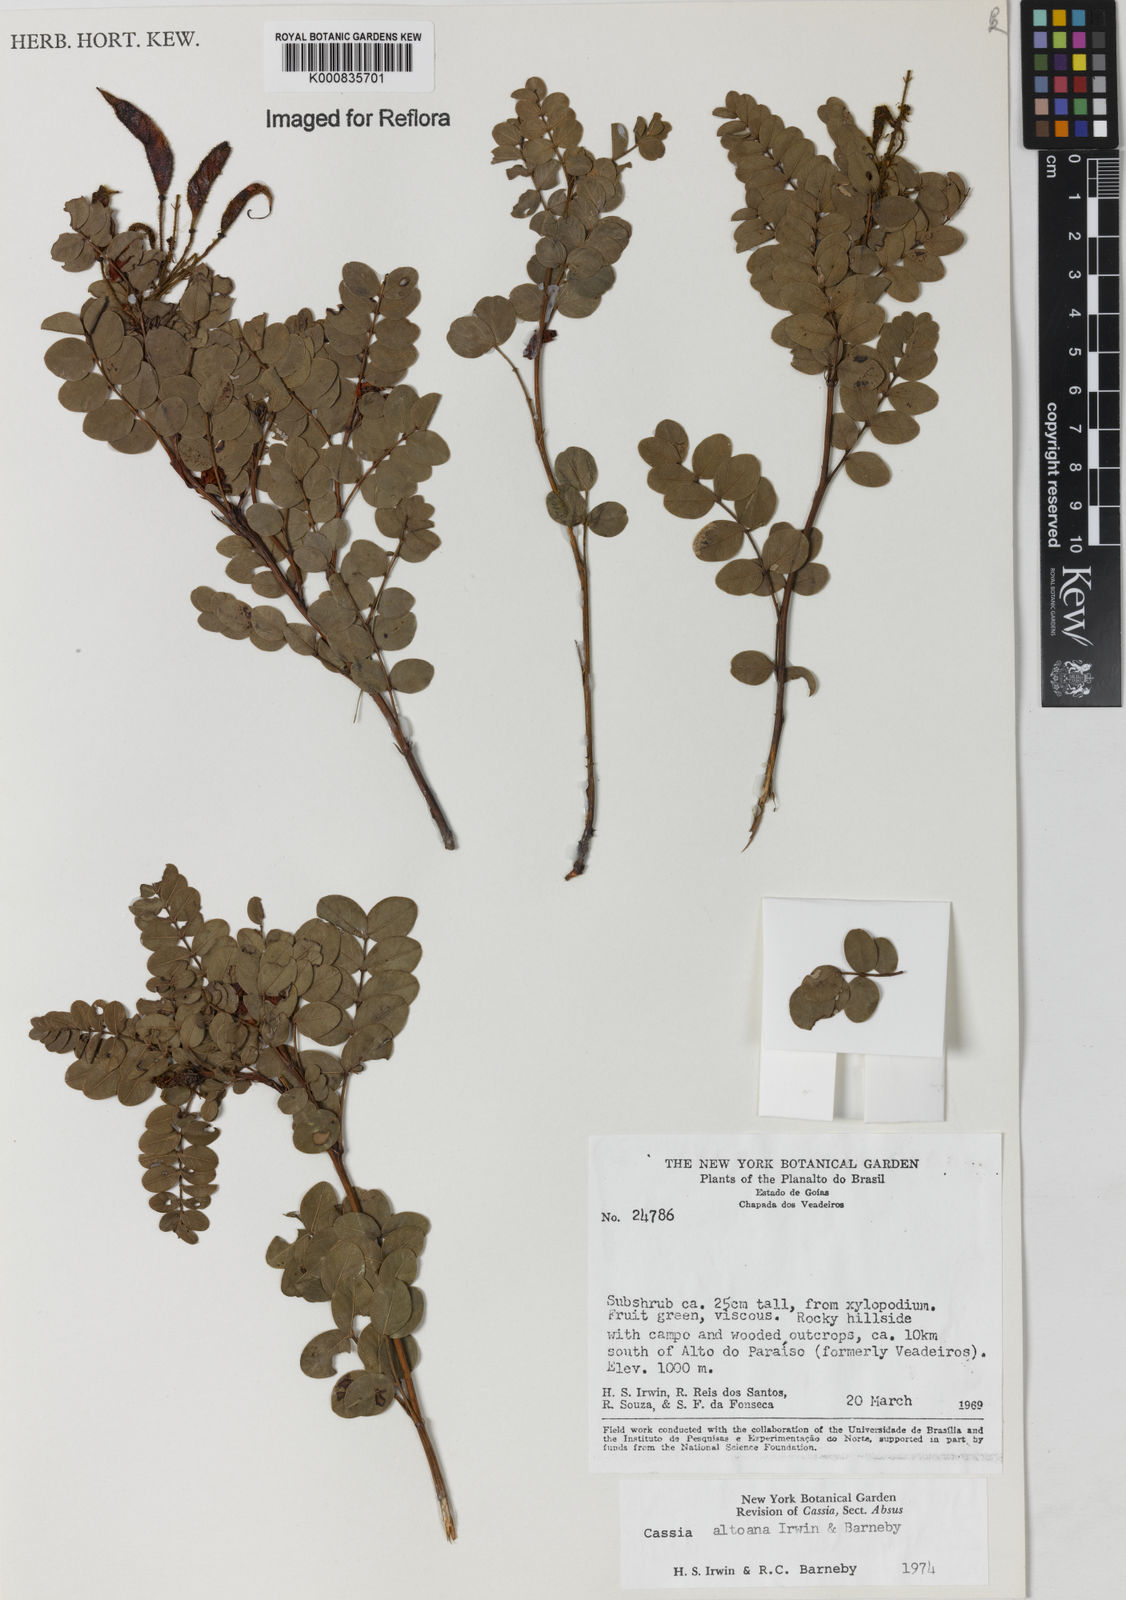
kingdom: Plantae
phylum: Tracheophyta
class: Magnoliopsida
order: Fabales
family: Fabaceae
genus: Chamaecrista
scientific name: Chamaecrista altoana
